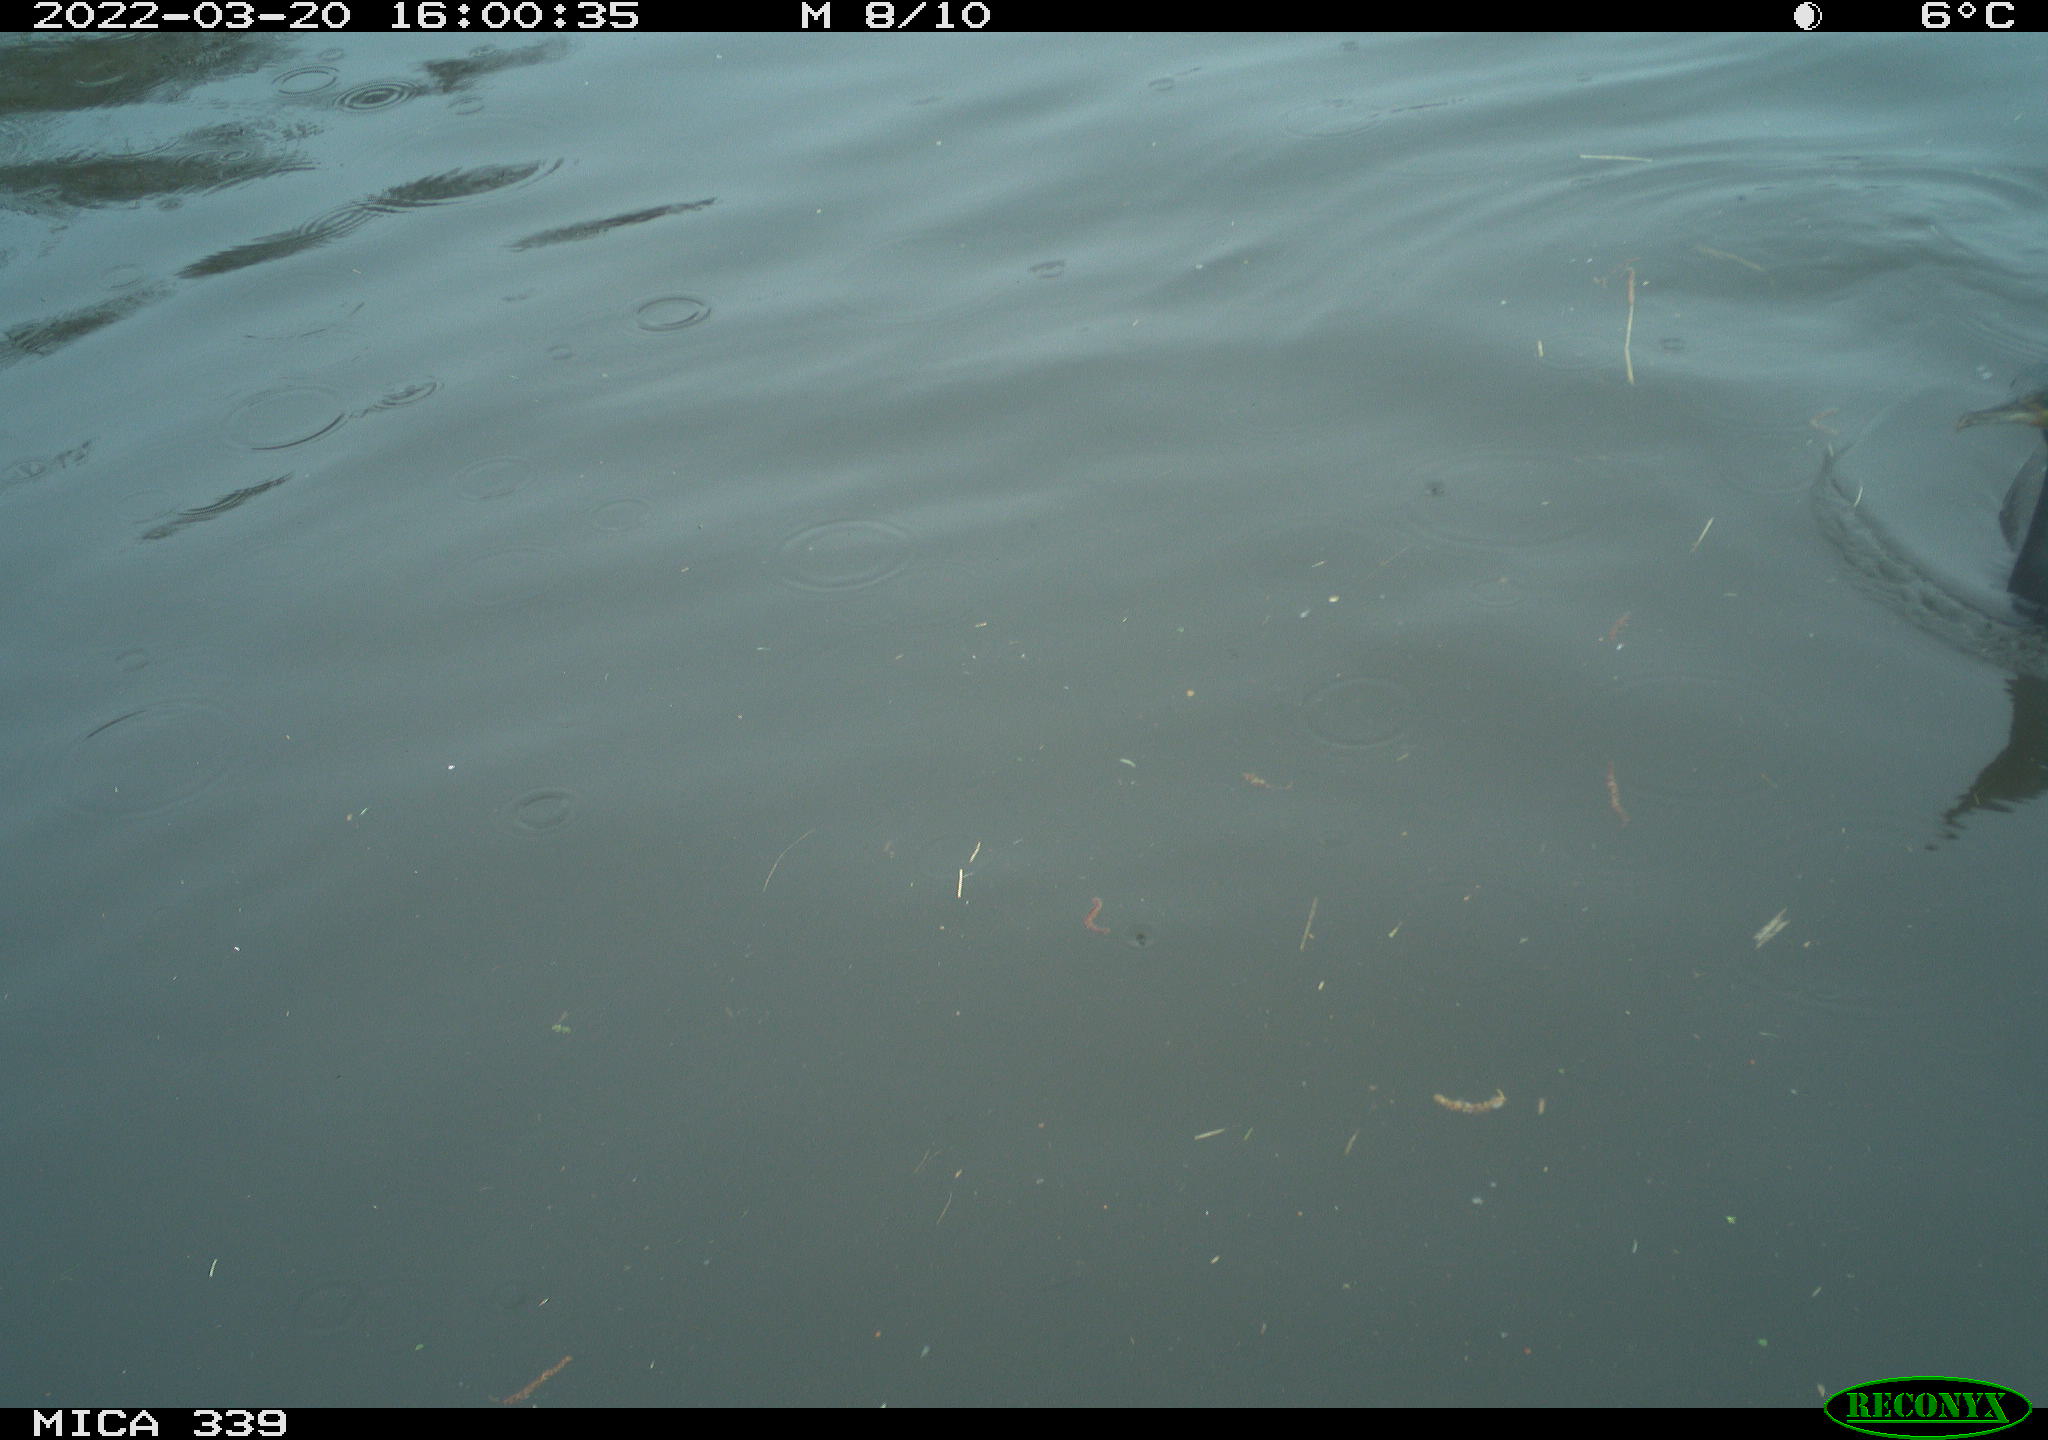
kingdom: Animalia
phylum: Chordata
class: Aves
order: Suliformes
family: Phalacrocoracidae
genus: Phalacrocorax
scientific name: Phalacrocorax carbo
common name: Great cormorant
